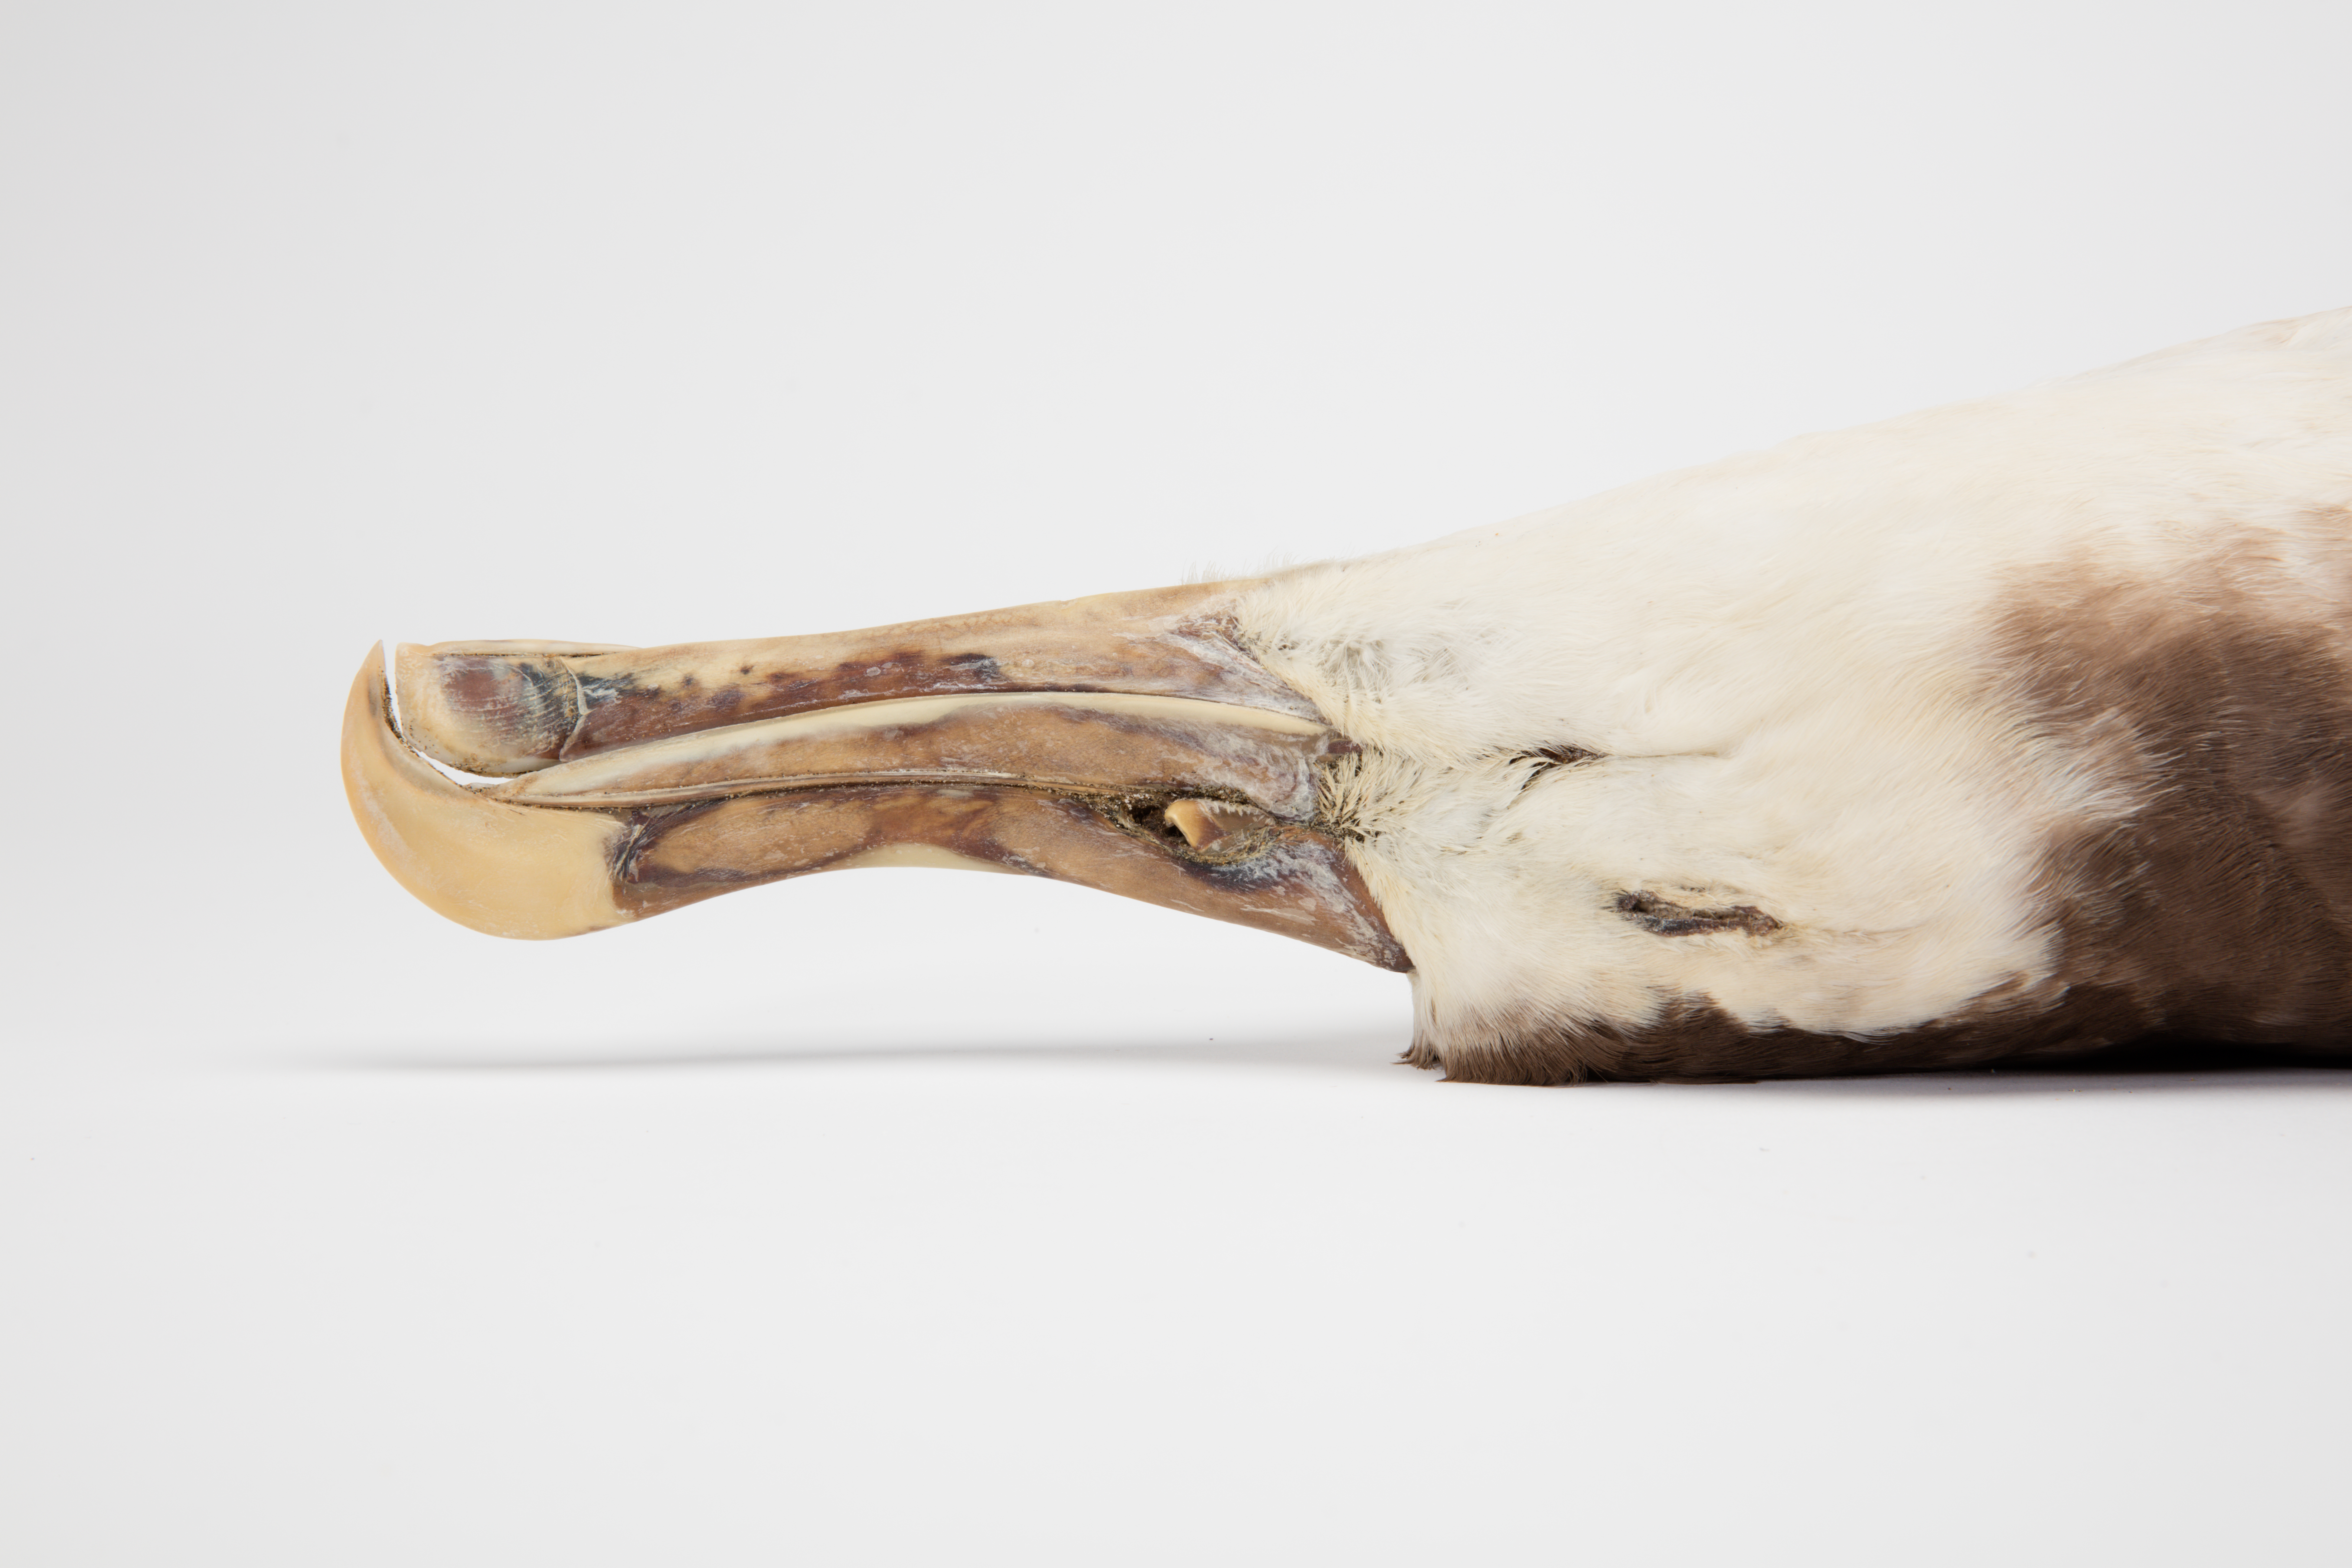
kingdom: Animalia
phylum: Chordata
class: Aves
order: Procellariiformes
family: Diomedeidae
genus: Diomedea
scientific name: Diomedea antipodensis
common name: Antipodean albatross
